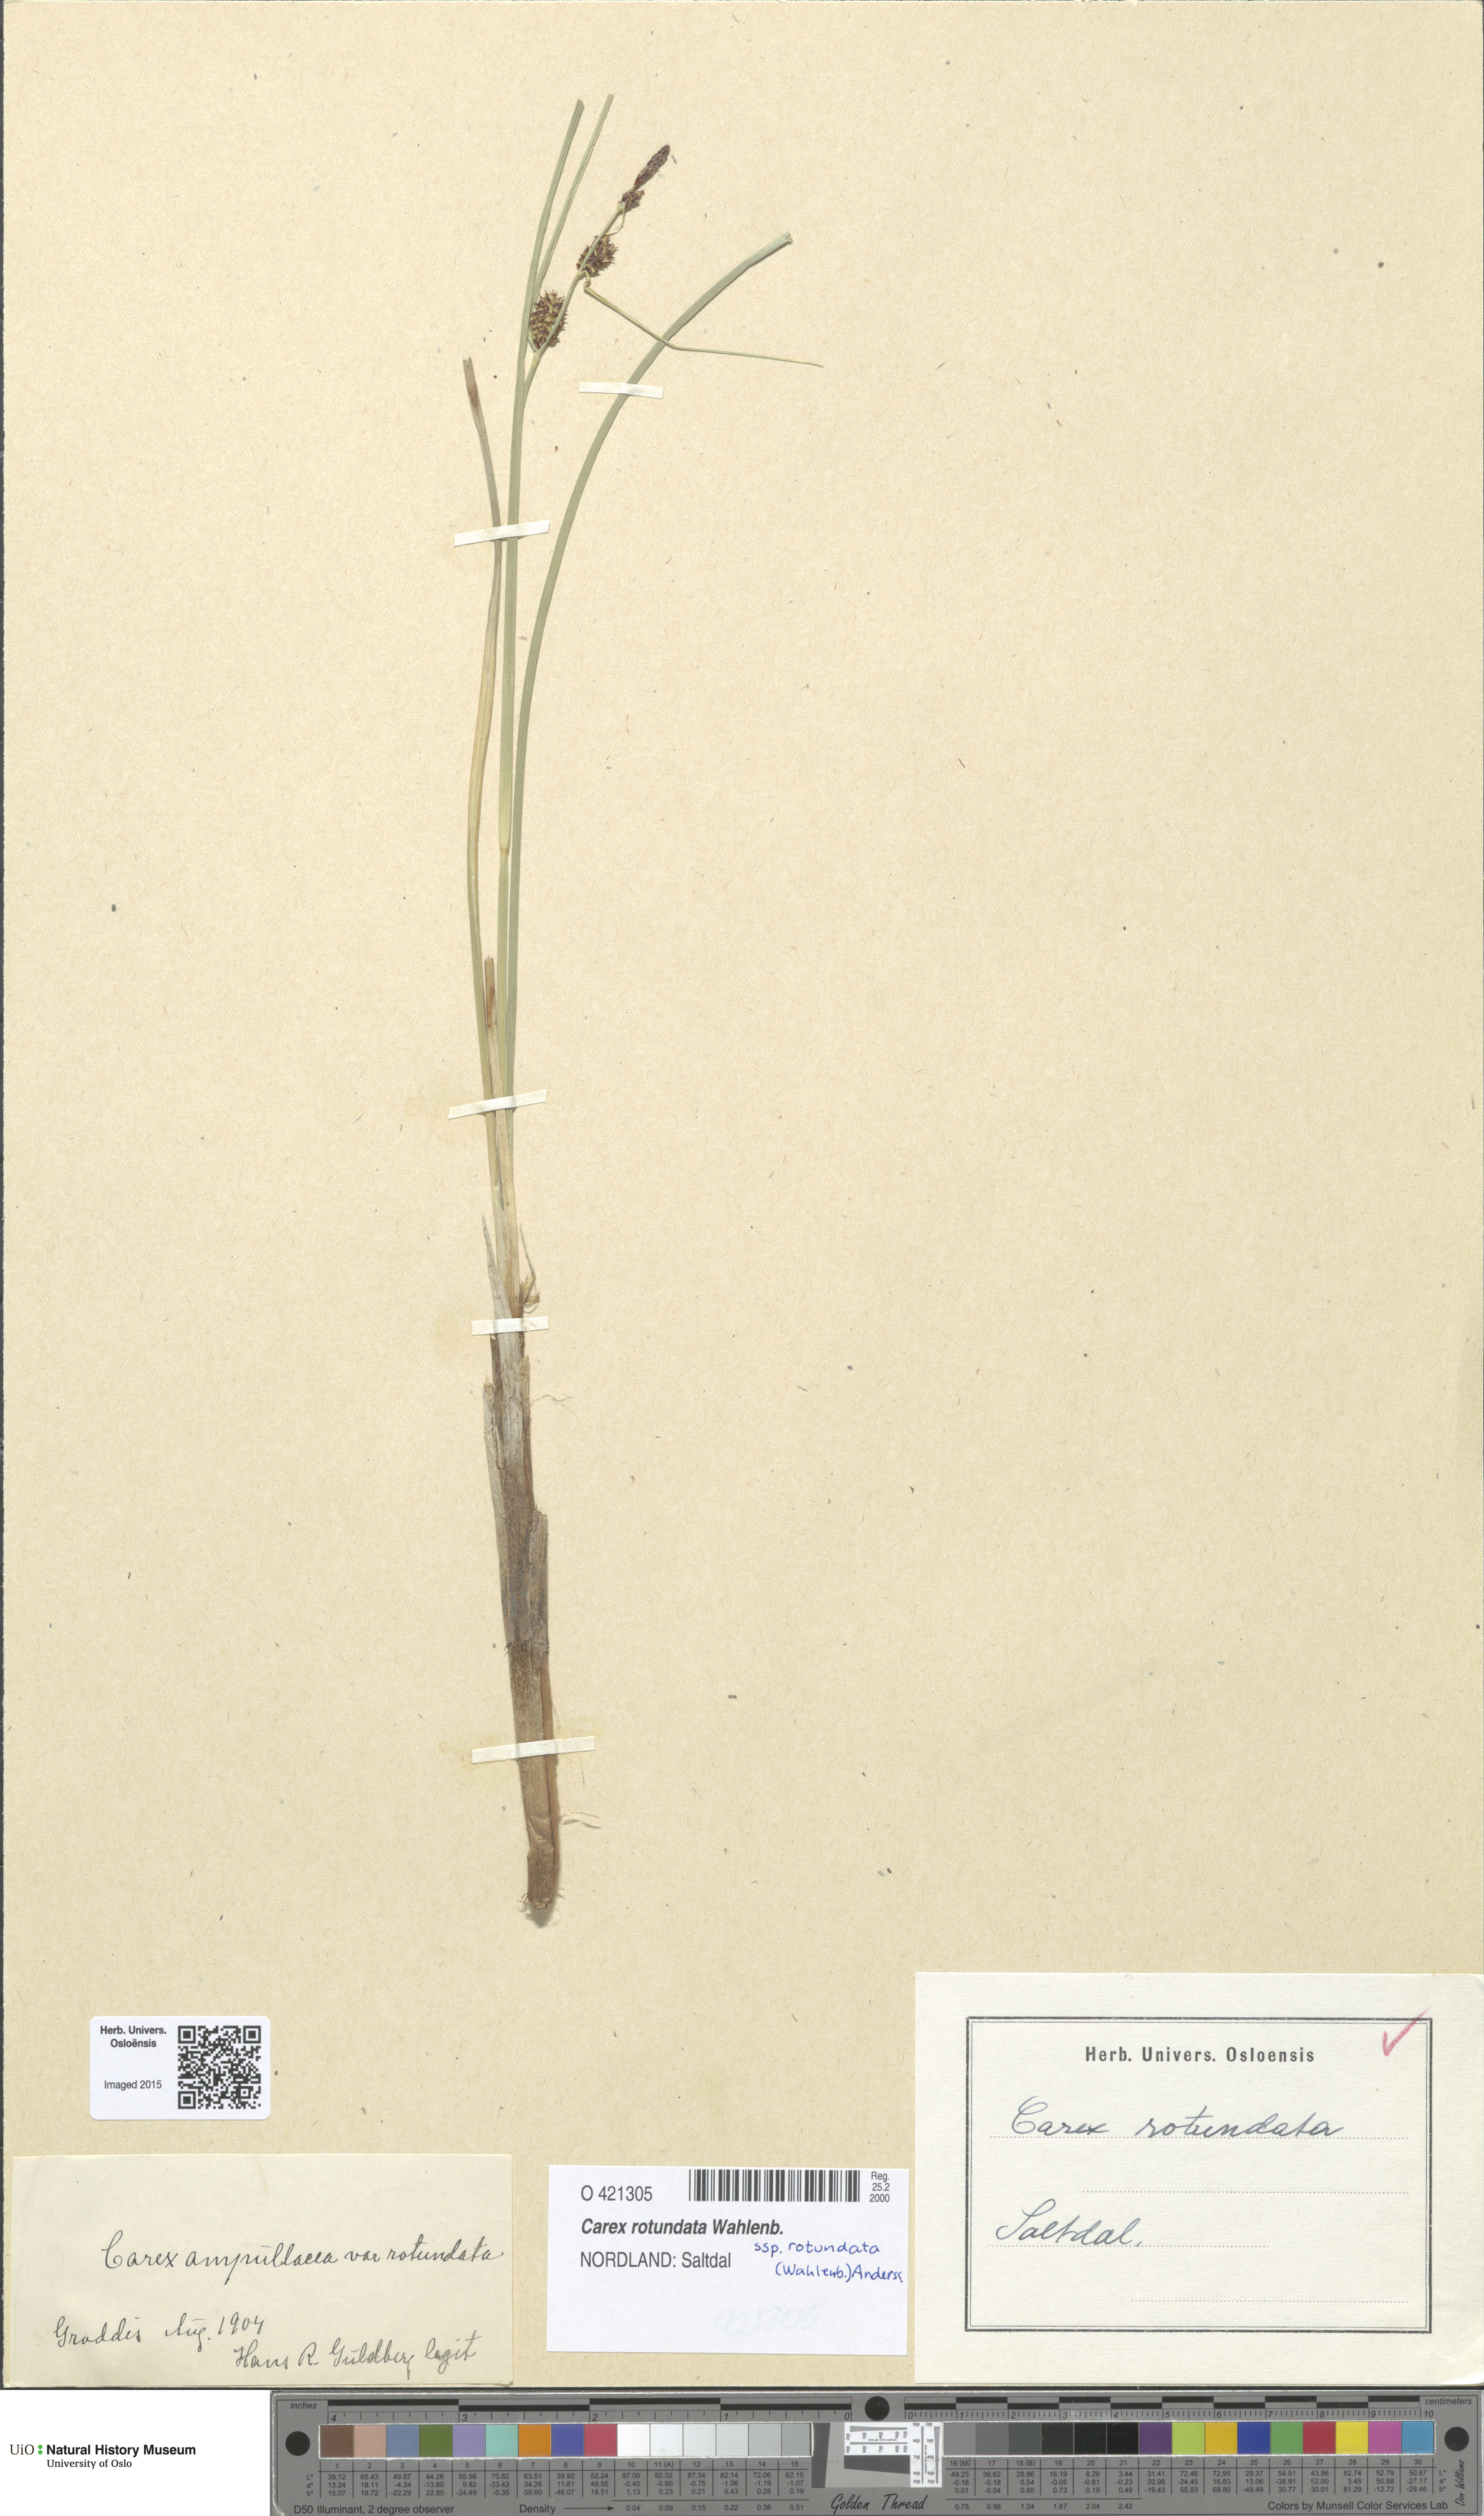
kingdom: Plantae
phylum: Tracheophyta
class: Liliopsida
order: Poales
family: Cyperaceae
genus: Carex
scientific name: Carex rotundata
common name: Round-fruited sedge
